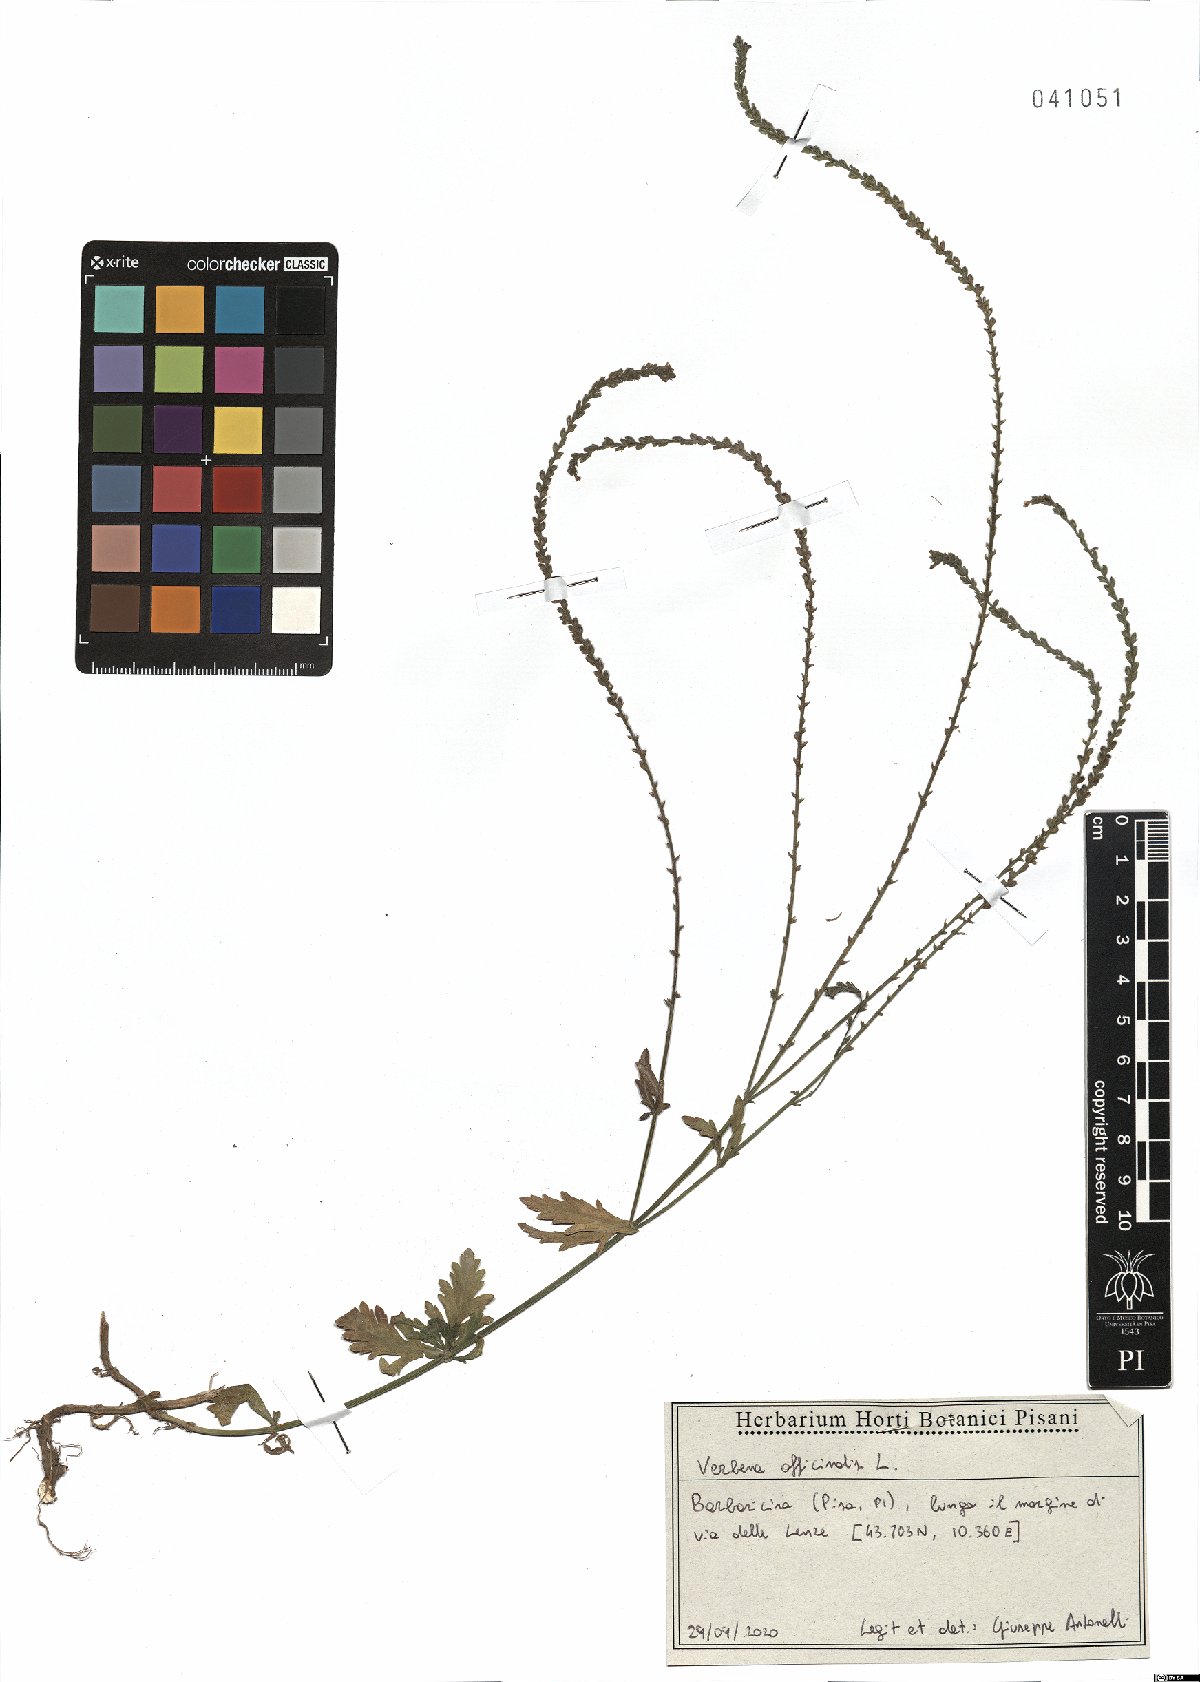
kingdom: Plantae
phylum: Tracheophyta
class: Magnoliopsida
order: Lamiales
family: Verbenaceae
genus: Verbena
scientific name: Verbena officinalis
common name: Vervain
